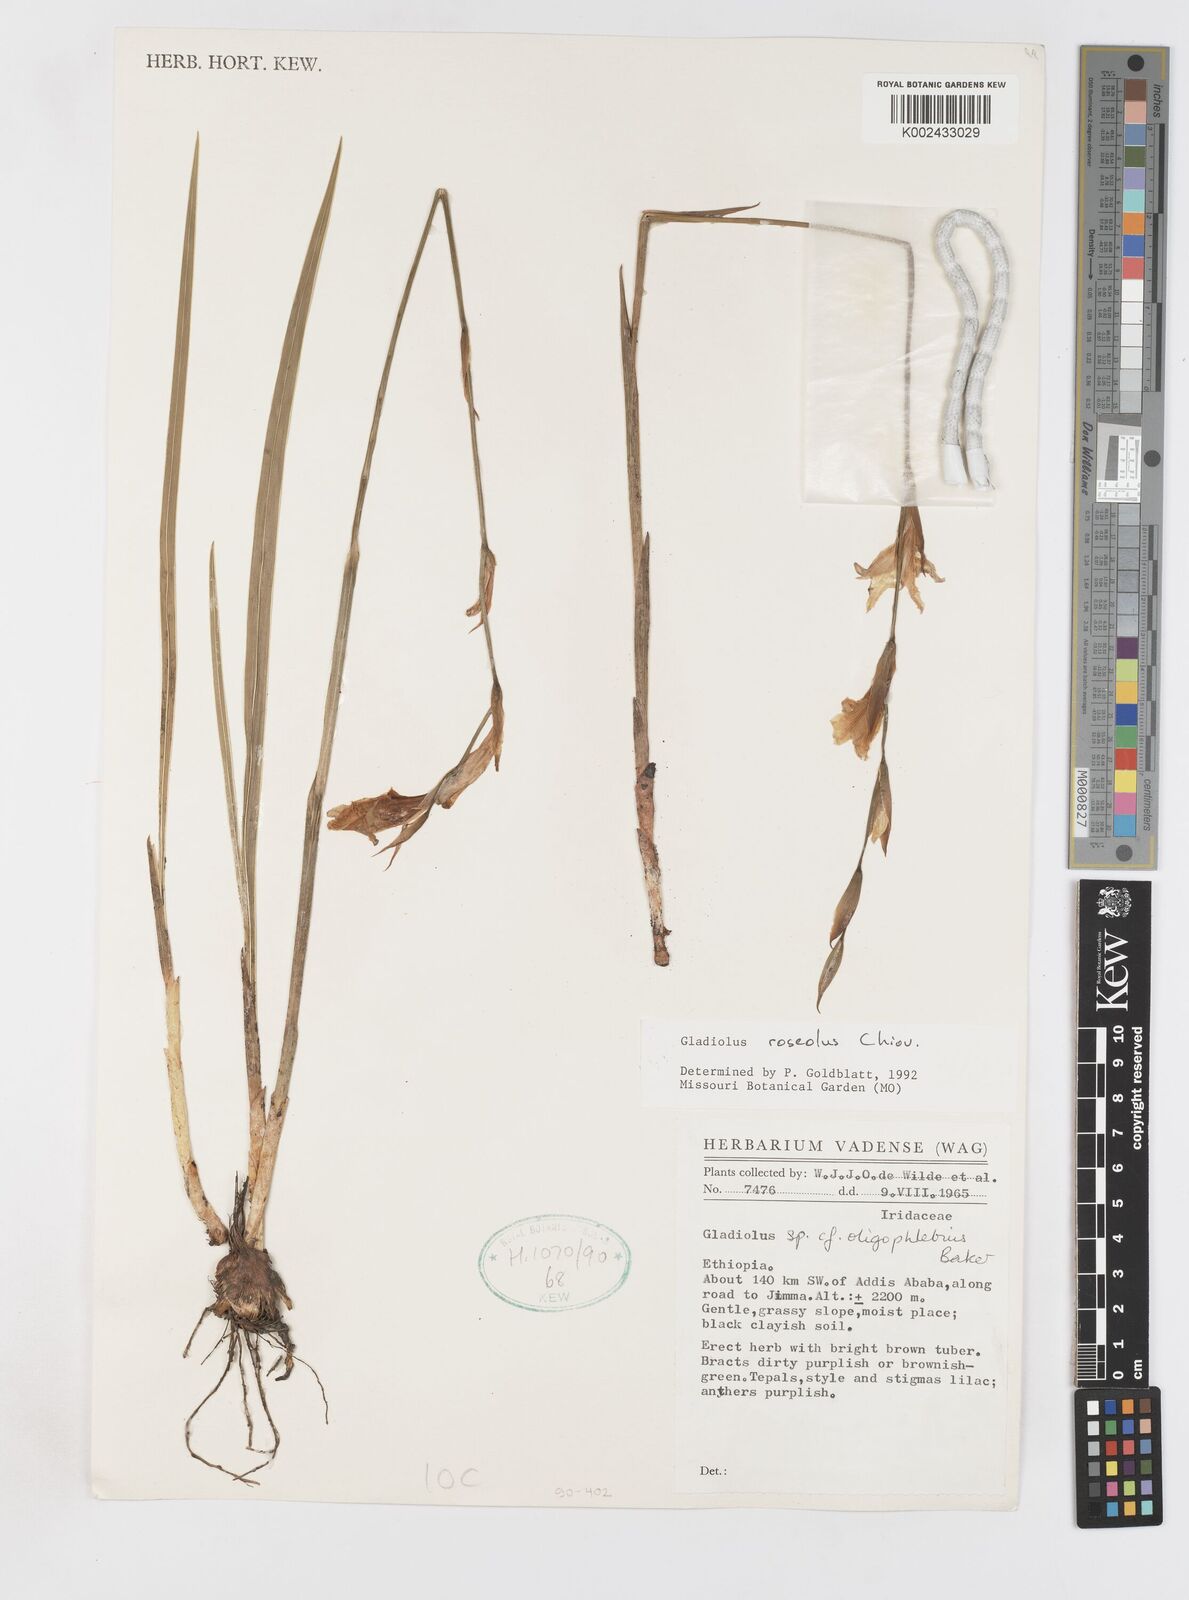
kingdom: Plantae
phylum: Tracheophyta
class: Liliopsida
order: Asparagales
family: Iridaceae
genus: Gladiolus
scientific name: Gladiolus roseolus
